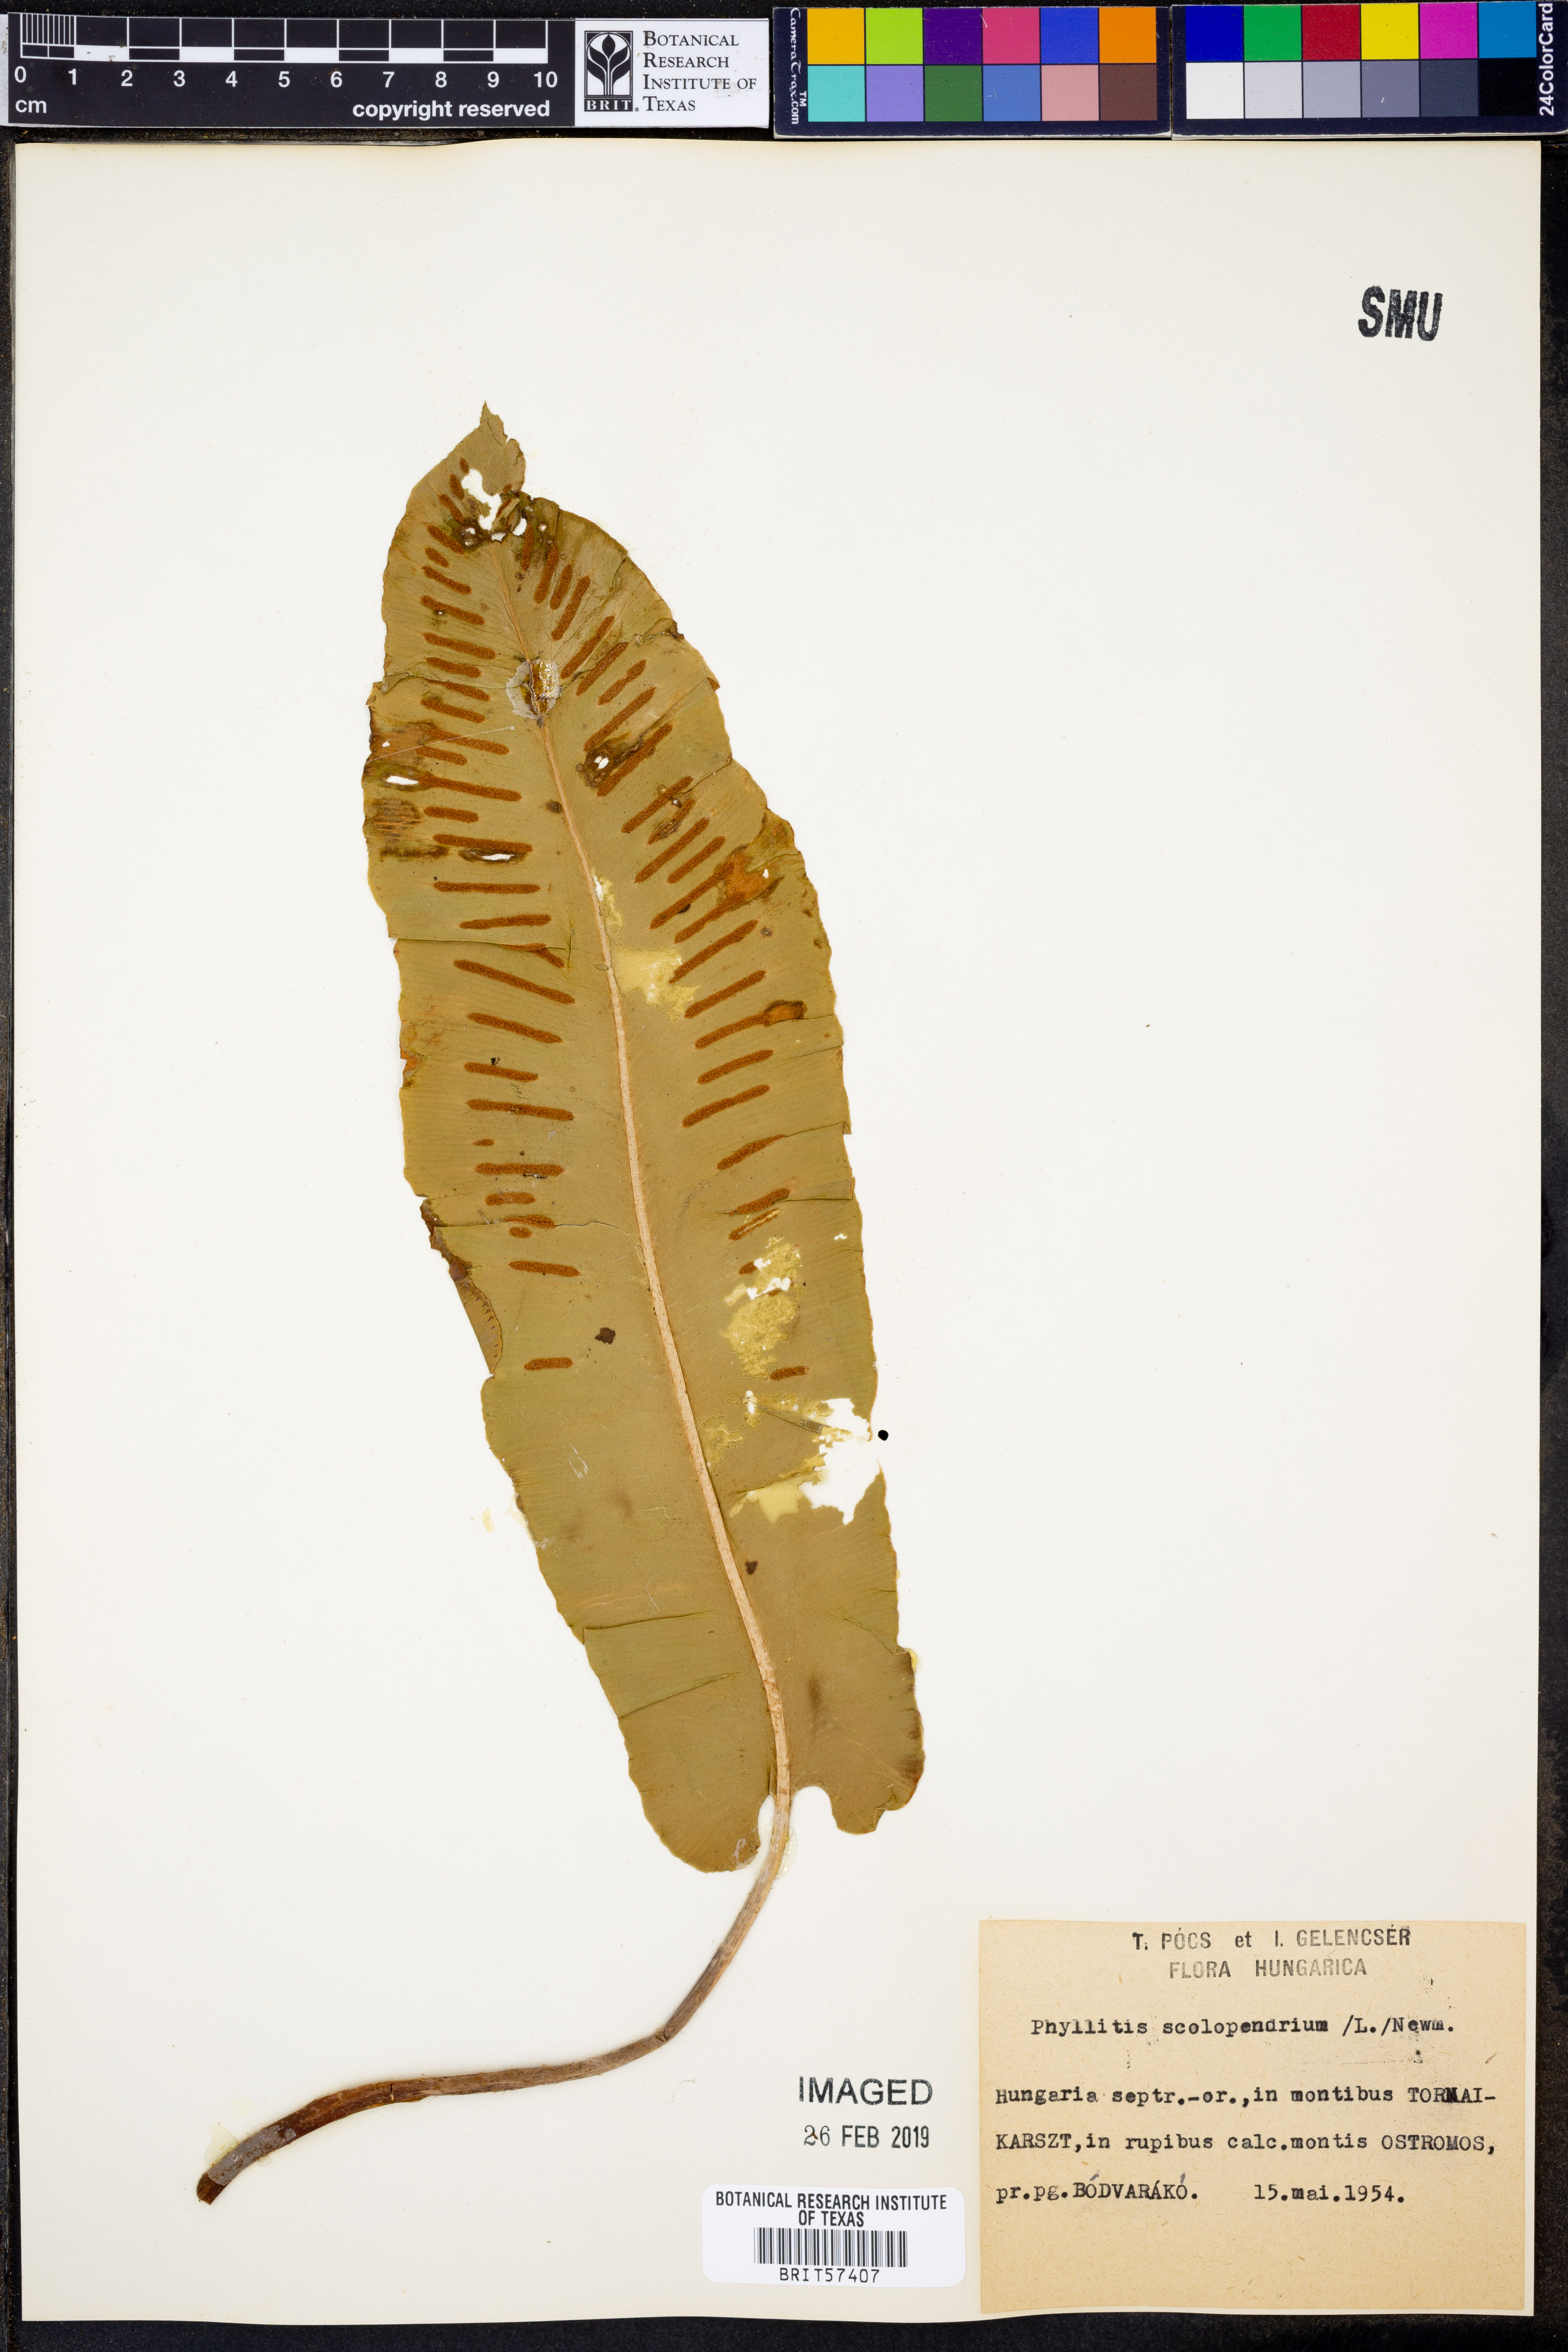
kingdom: Plantae
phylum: Tracheophyta
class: Polypodiopsida
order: Polypodiales
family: Aspleniaceae
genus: Asplenium
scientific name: Asplenium scolopendrium
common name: Hart's-tongue fern
